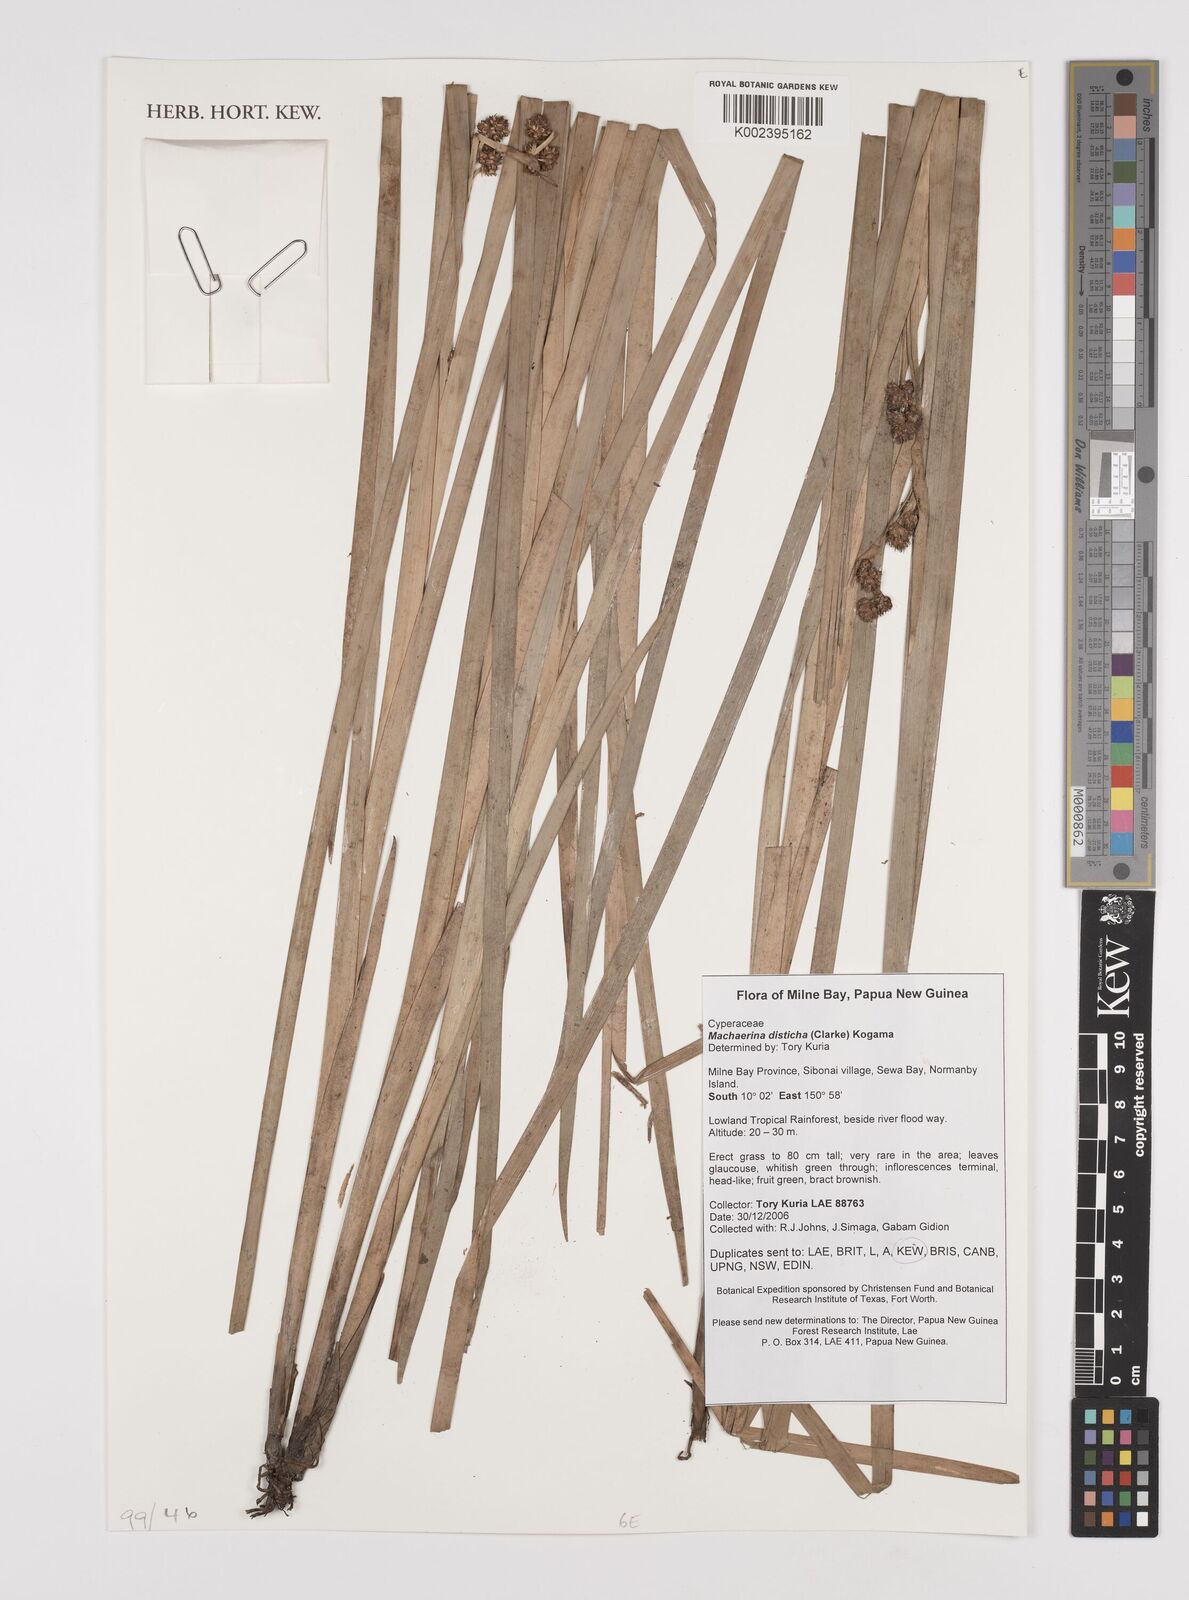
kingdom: Plantae
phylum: Tracheophyta
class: Liliopsida
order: Poales
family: Cyperaceae
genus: Machaerina
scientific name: Machaerina disticha
